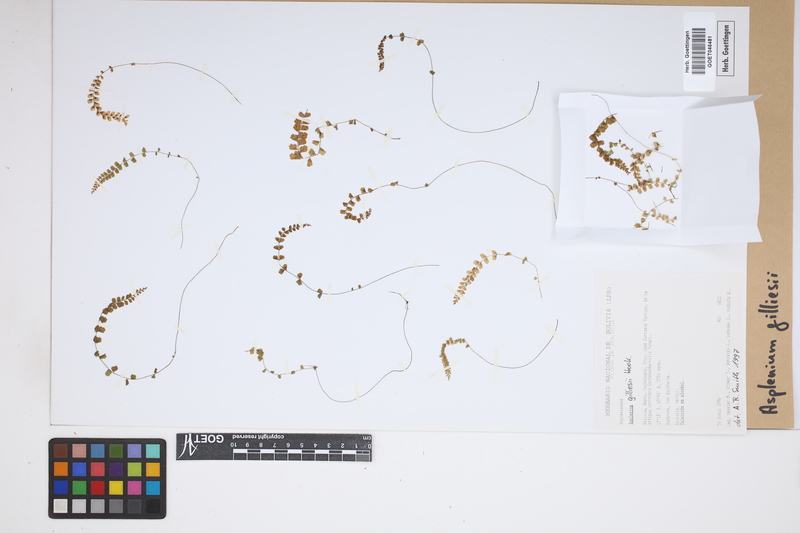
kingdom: Plantae
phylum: Tracheophyta
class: Polypodiopsida
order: Polypodiales
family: Aspleniaceae
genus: Asplenium
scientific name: Asplenium gilliesii
